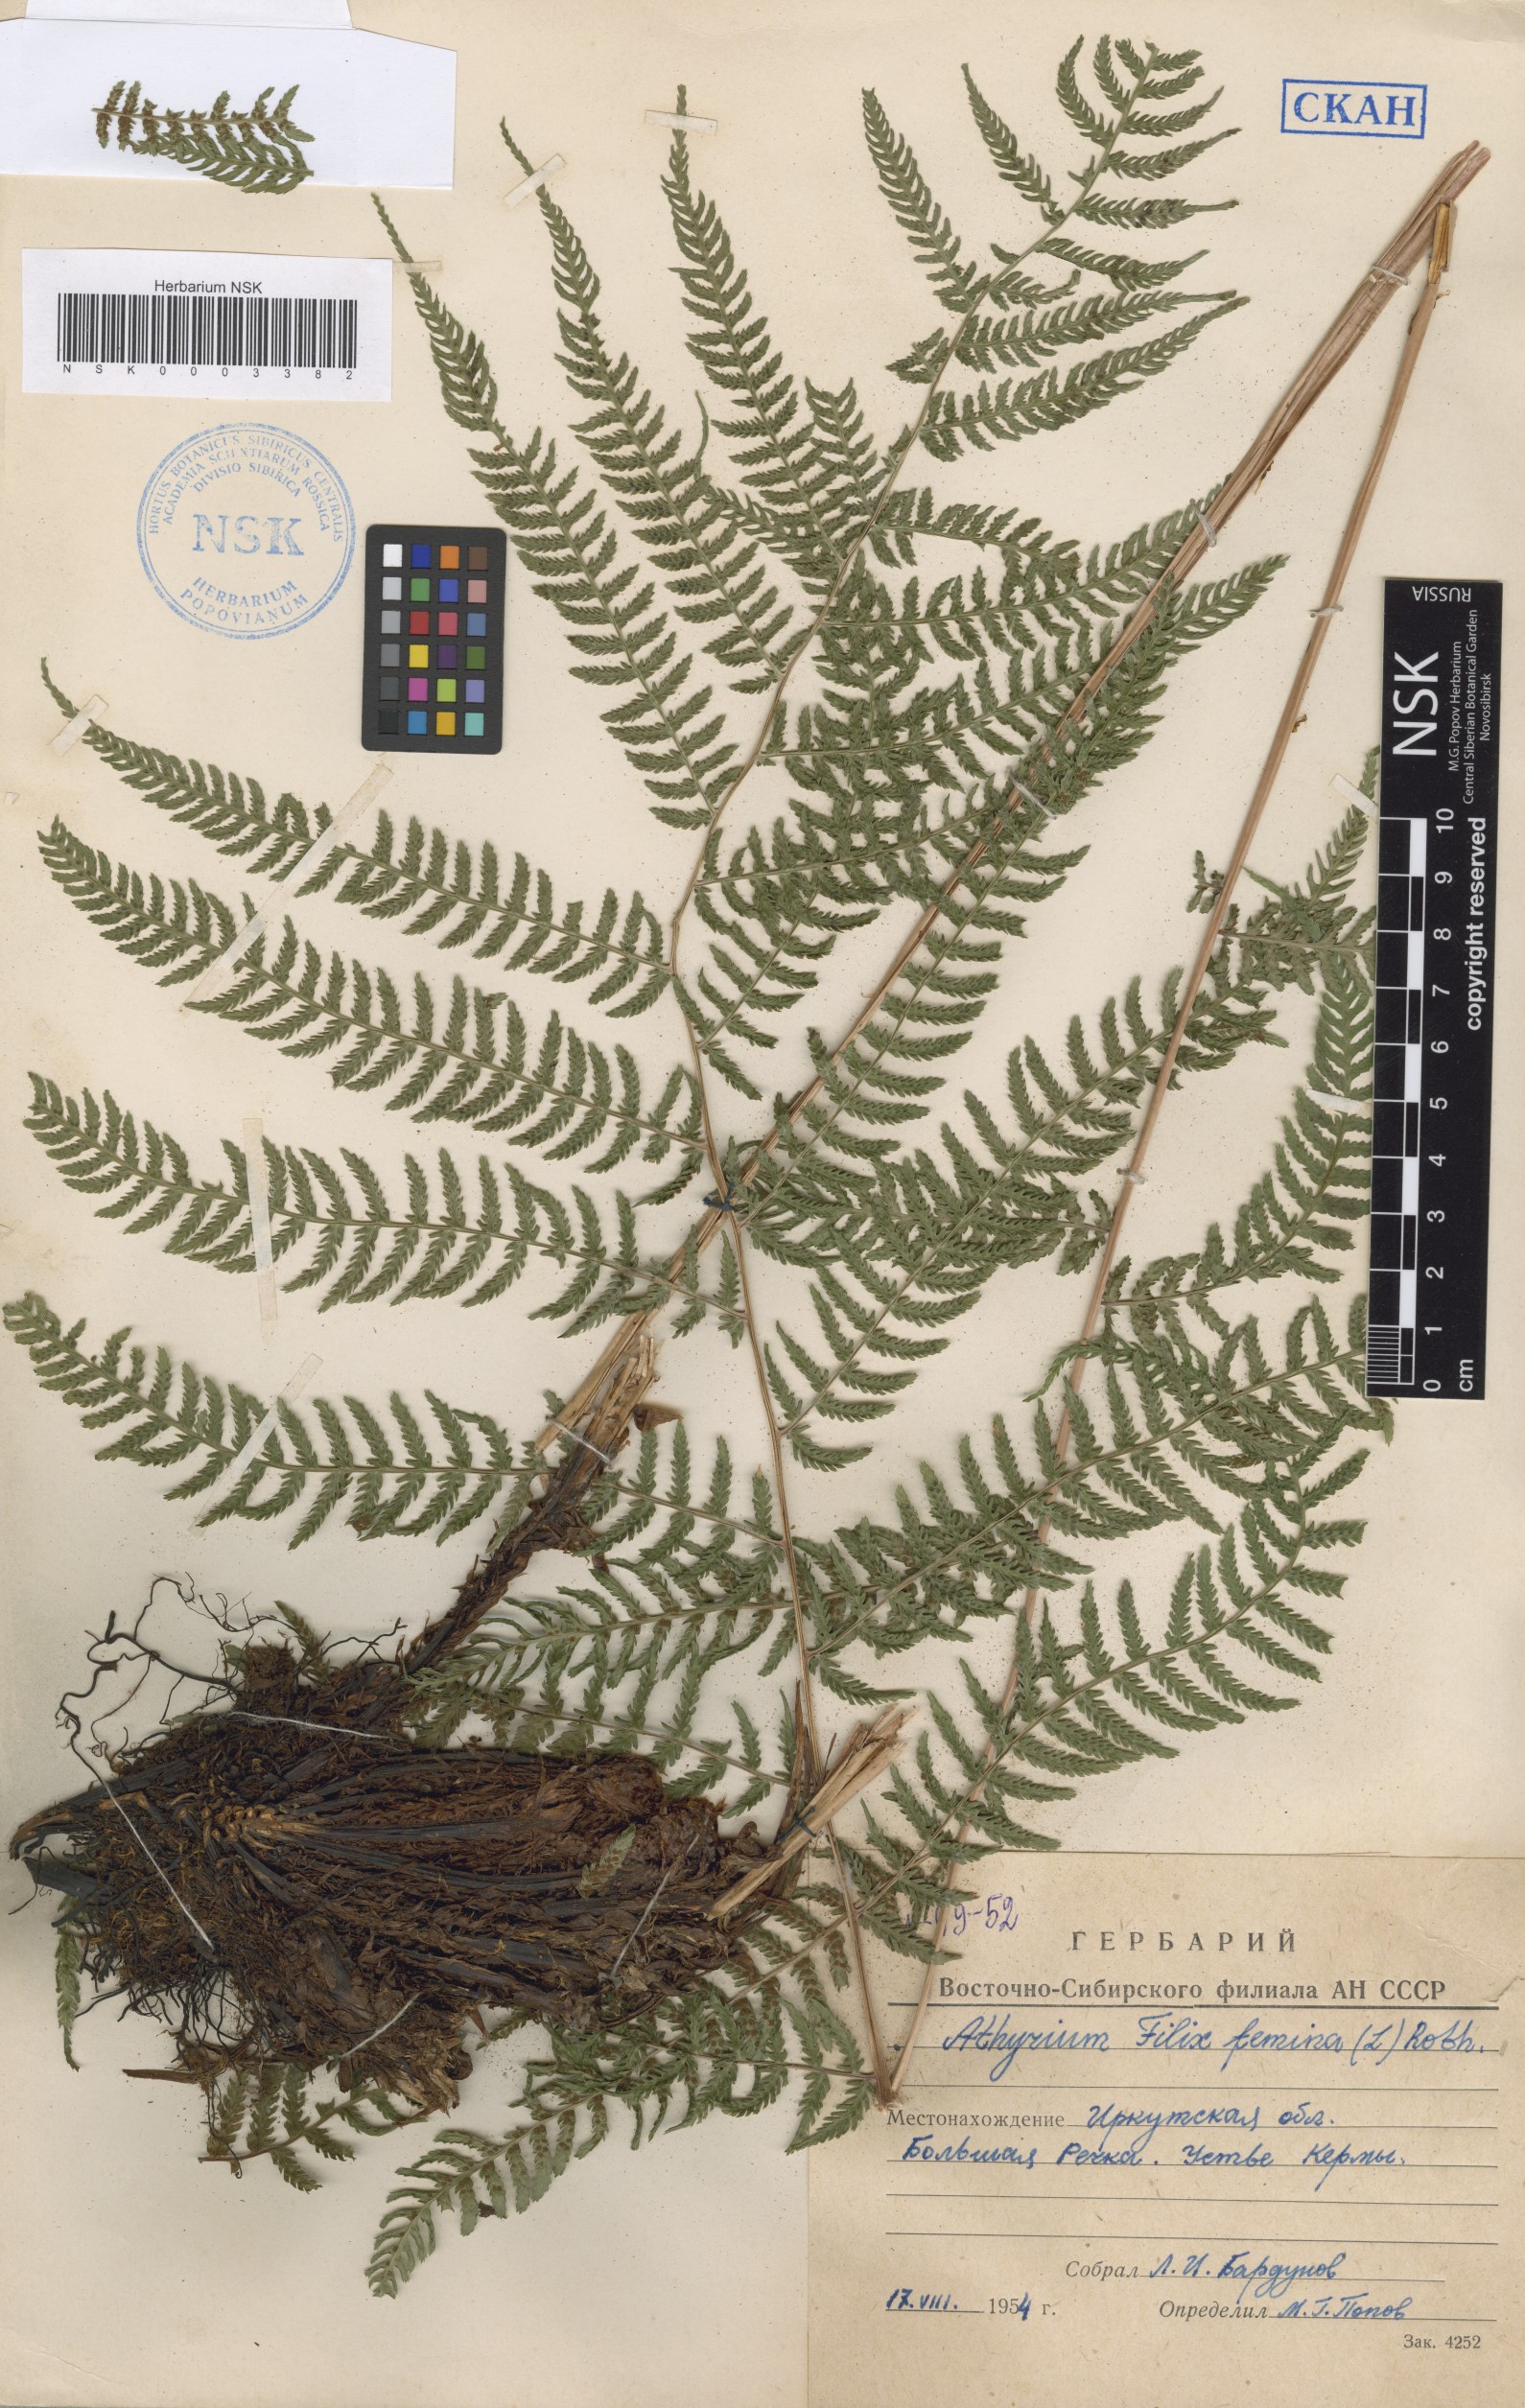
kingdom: Plantae
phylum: Tracheophyta
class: Polypodiopsida
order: Polypodiales
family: Athyriaceae
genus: Athyrium
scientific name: Athyrium filix-femina
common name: Lady fern
